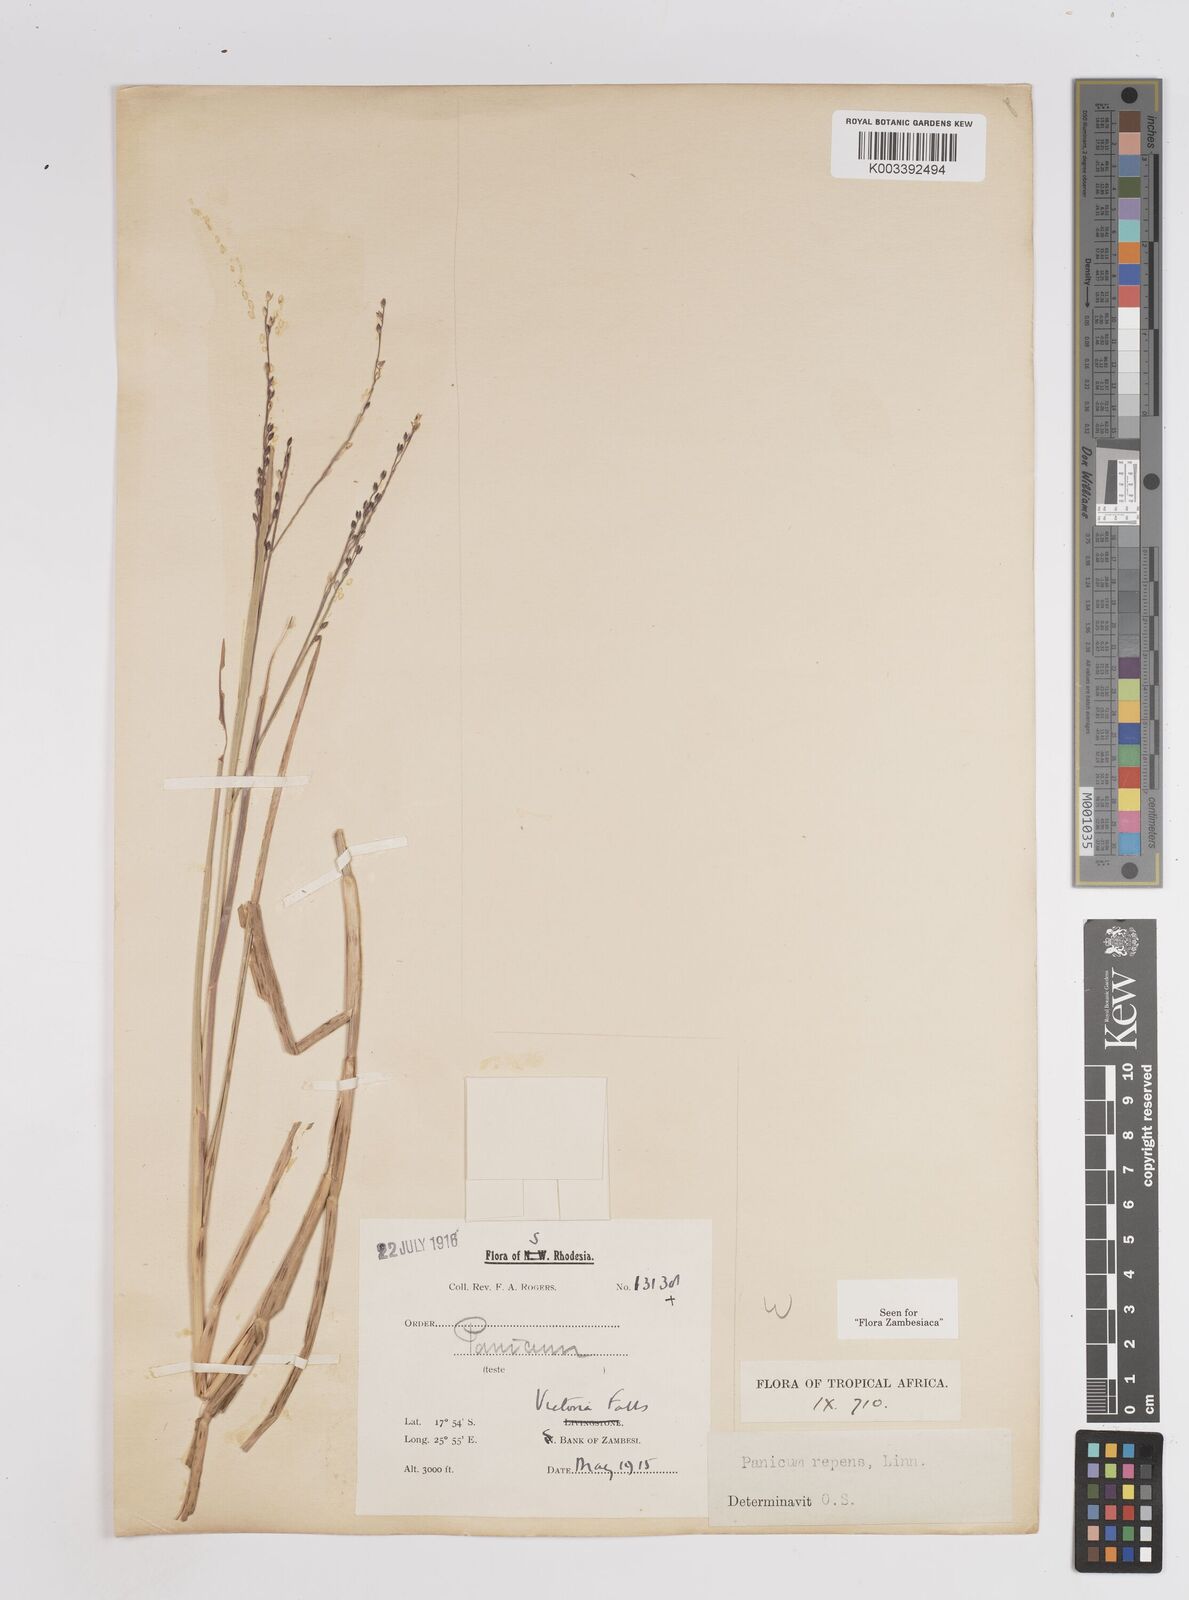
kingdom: Plantae
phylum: Tracheophyta
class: Liliopsida
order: Poales
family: Poaceae
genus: Panicum
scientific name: Panicum repens
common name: Torpedo grass
